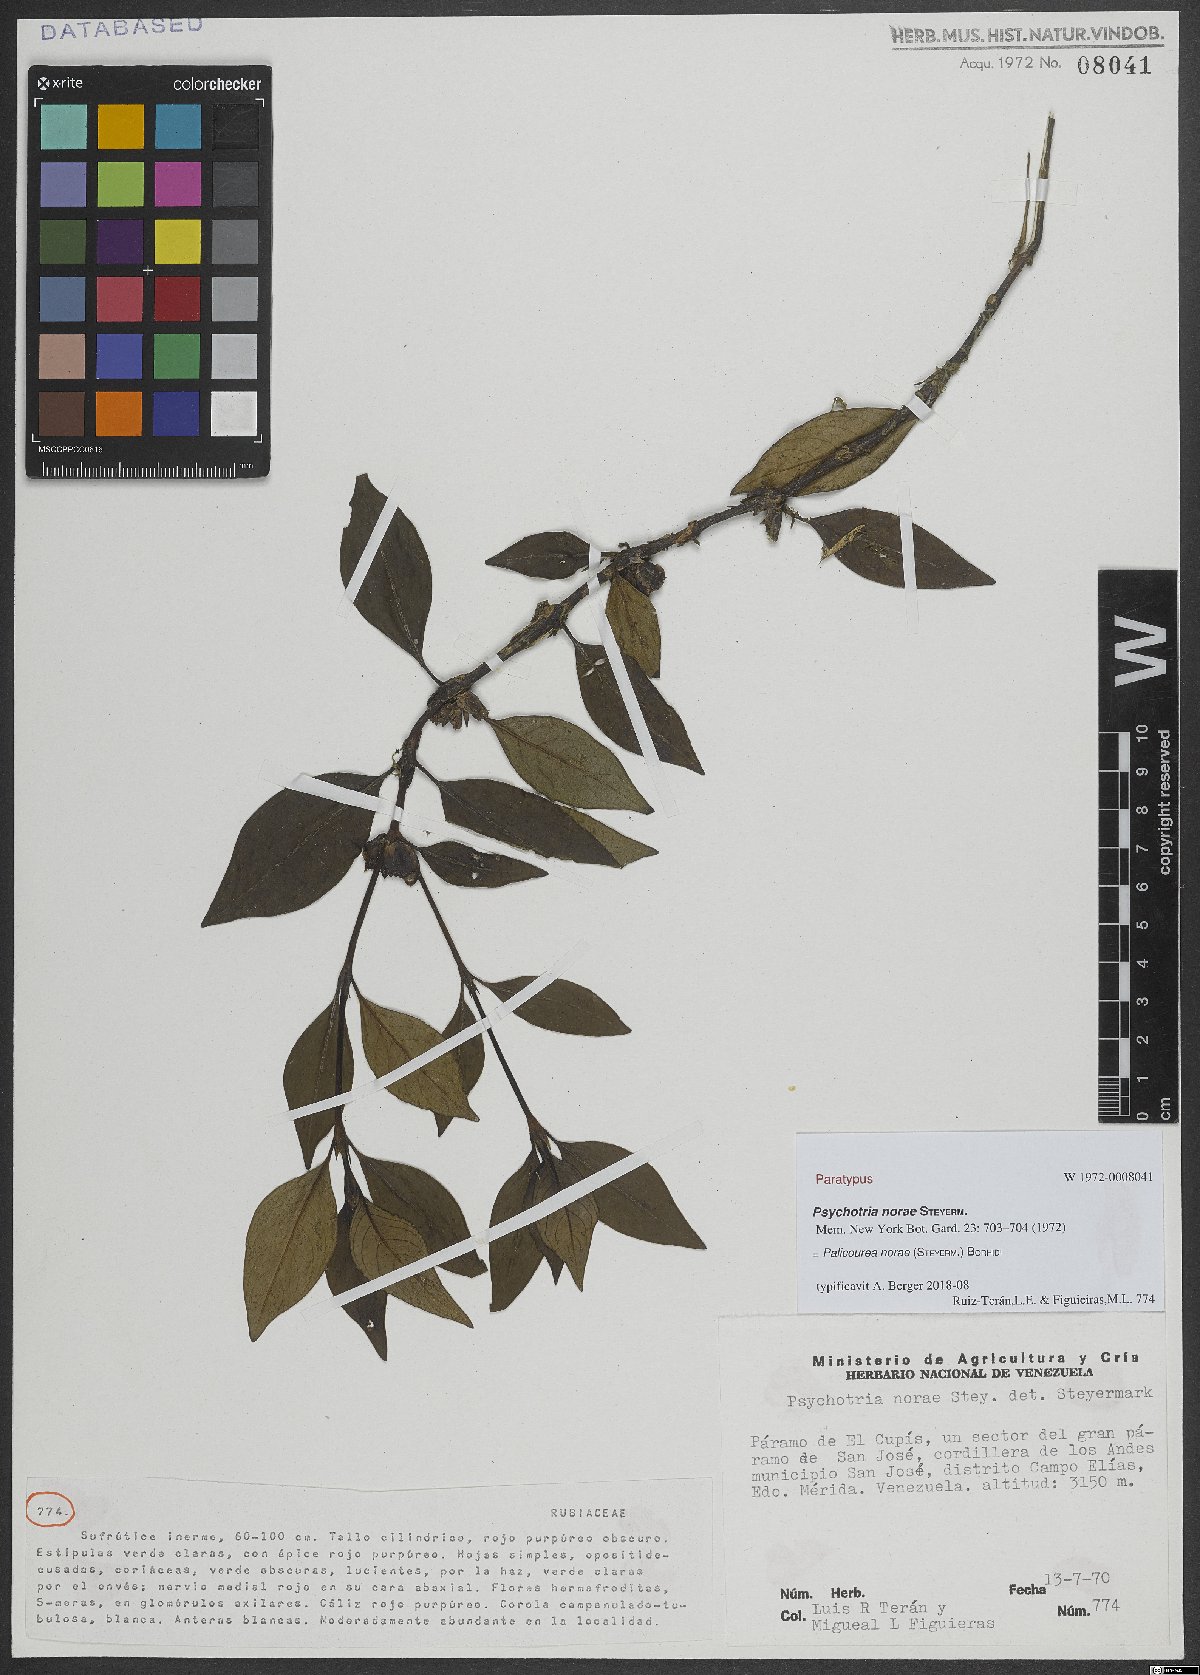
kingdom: Plantae
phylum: Tracheophyta
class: Magnoliopsida
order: Gentianales
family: Rubiaceae
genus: Palicourea
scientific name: Palicourea rosacea
